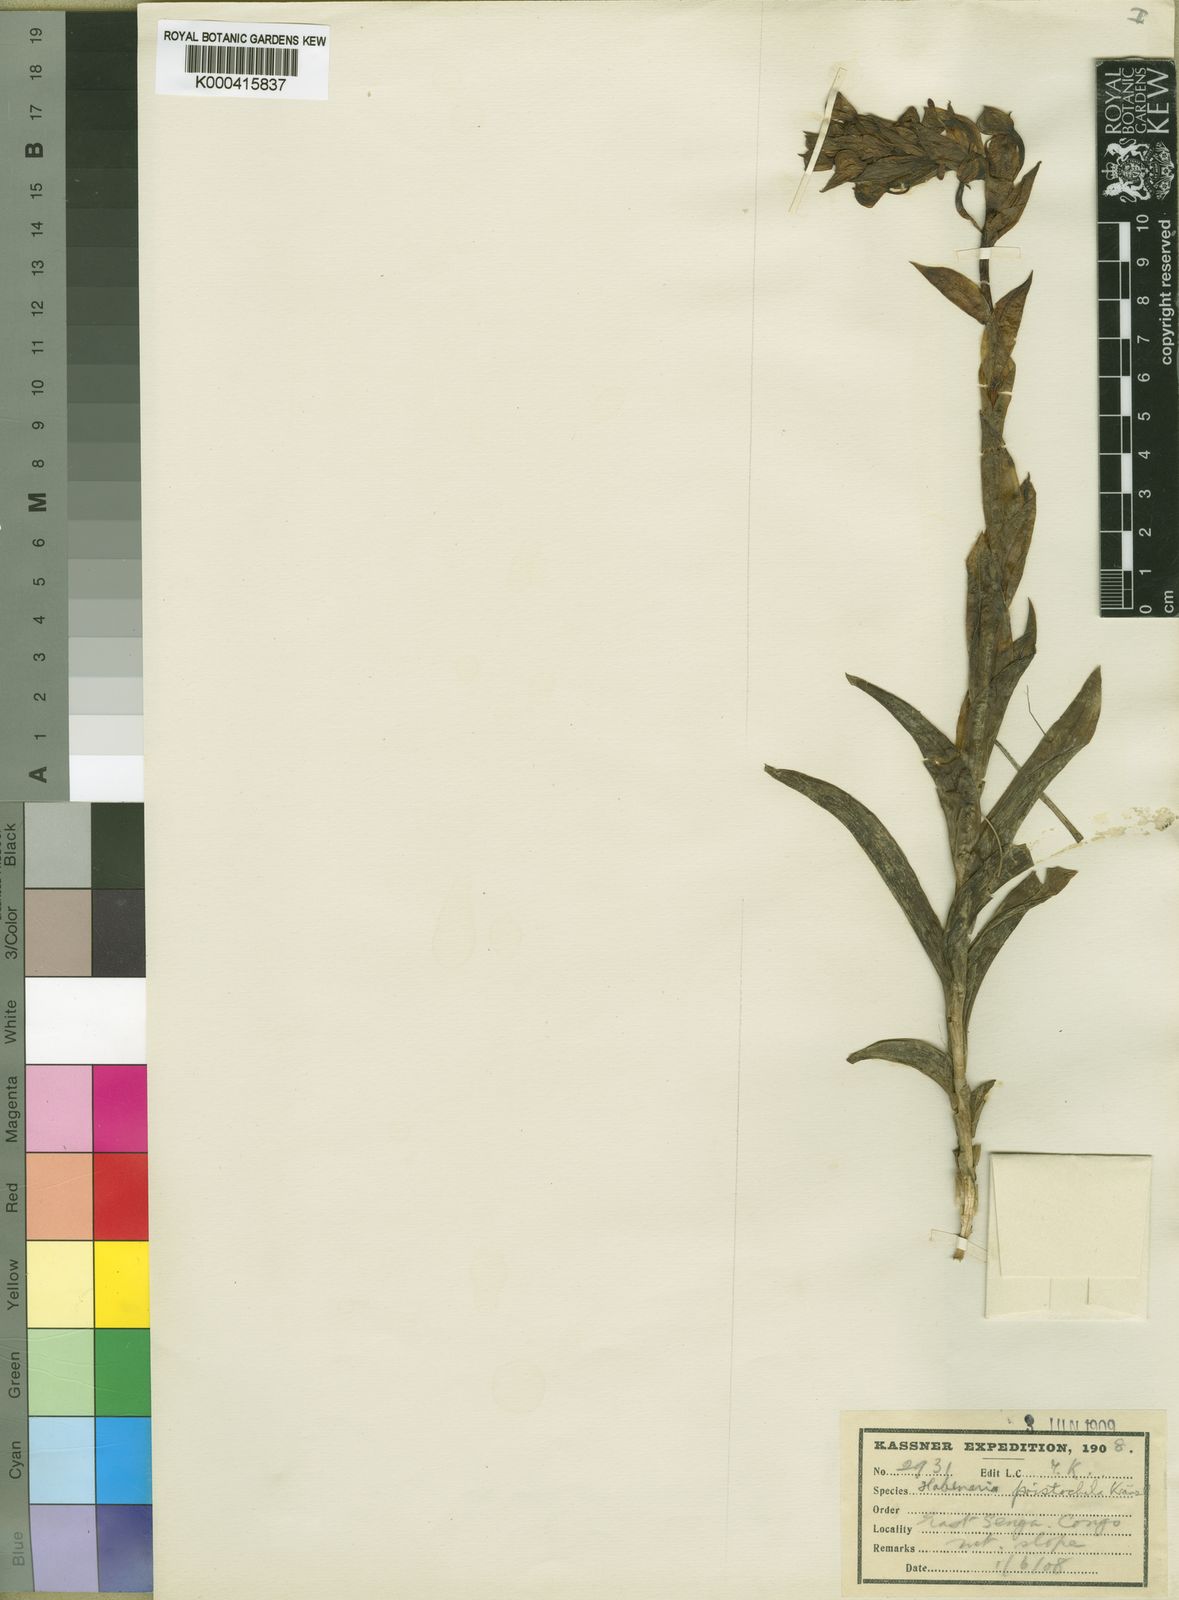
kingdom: Plantae
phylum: Tracheophyta
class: Liliopsida
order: Asparagales
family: Orchidaceae
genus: Habenaria
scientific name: Habenaria cornuta
